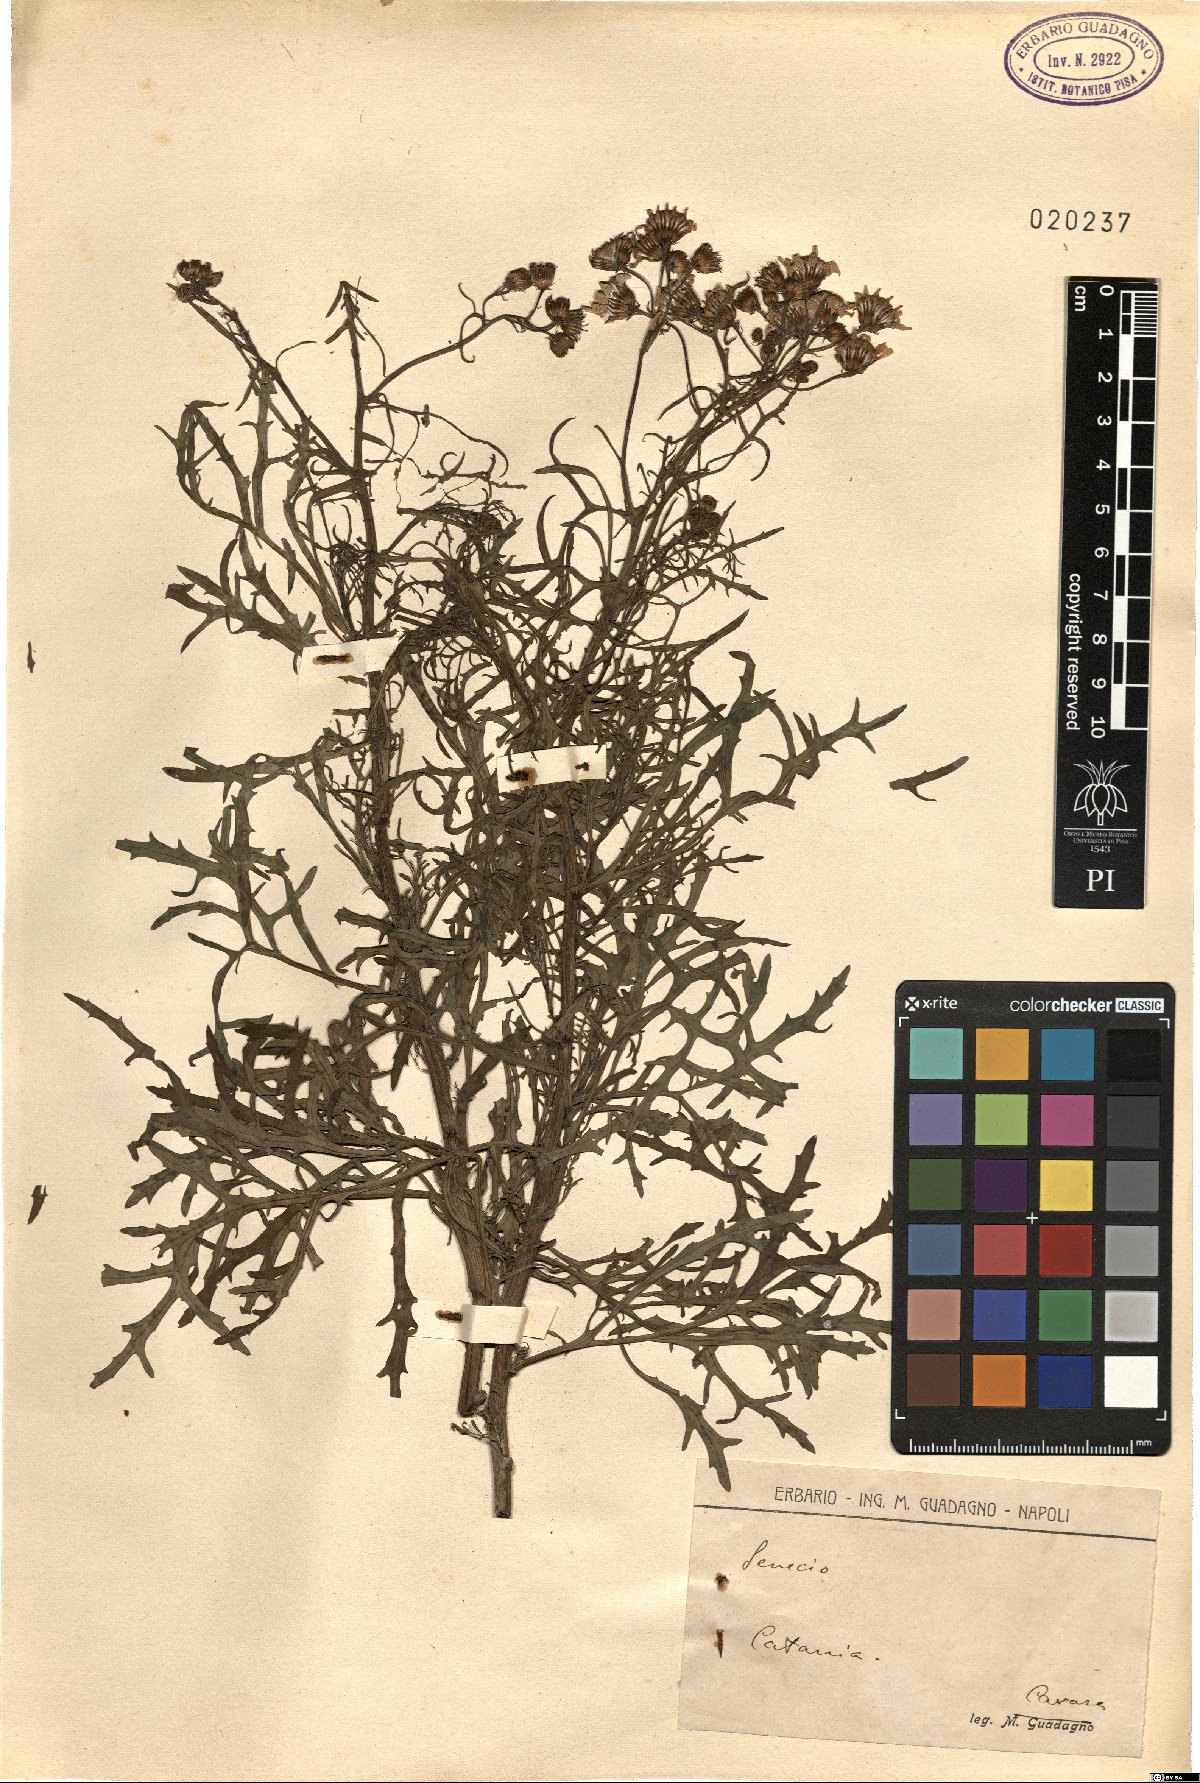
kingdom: Plantae
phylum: Tracheophyta
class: Magnoliopsida
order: Asterales
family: Asteraceae
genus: Senecio
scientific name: Senecio
